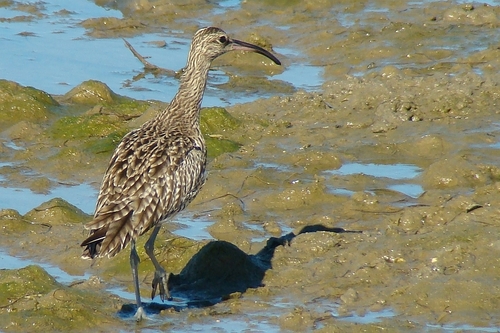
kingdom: Animalia
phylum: Chordata
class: Aves
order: Charadriiformes
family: Scolopacidae
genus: Numenius
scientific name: Numenius phaeopus
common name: Whimbrel
